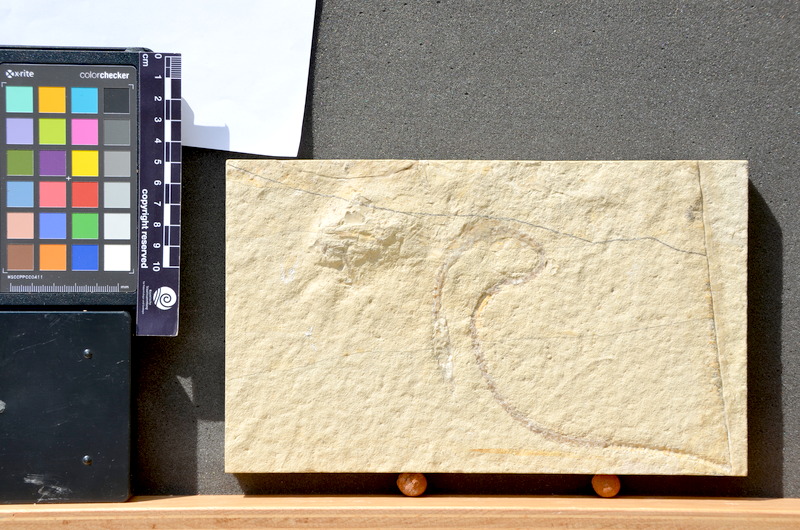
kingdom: Animalia
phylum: Chordata
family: Aspidorhynchidae
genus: Belonostomus
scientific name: Belonostomus
